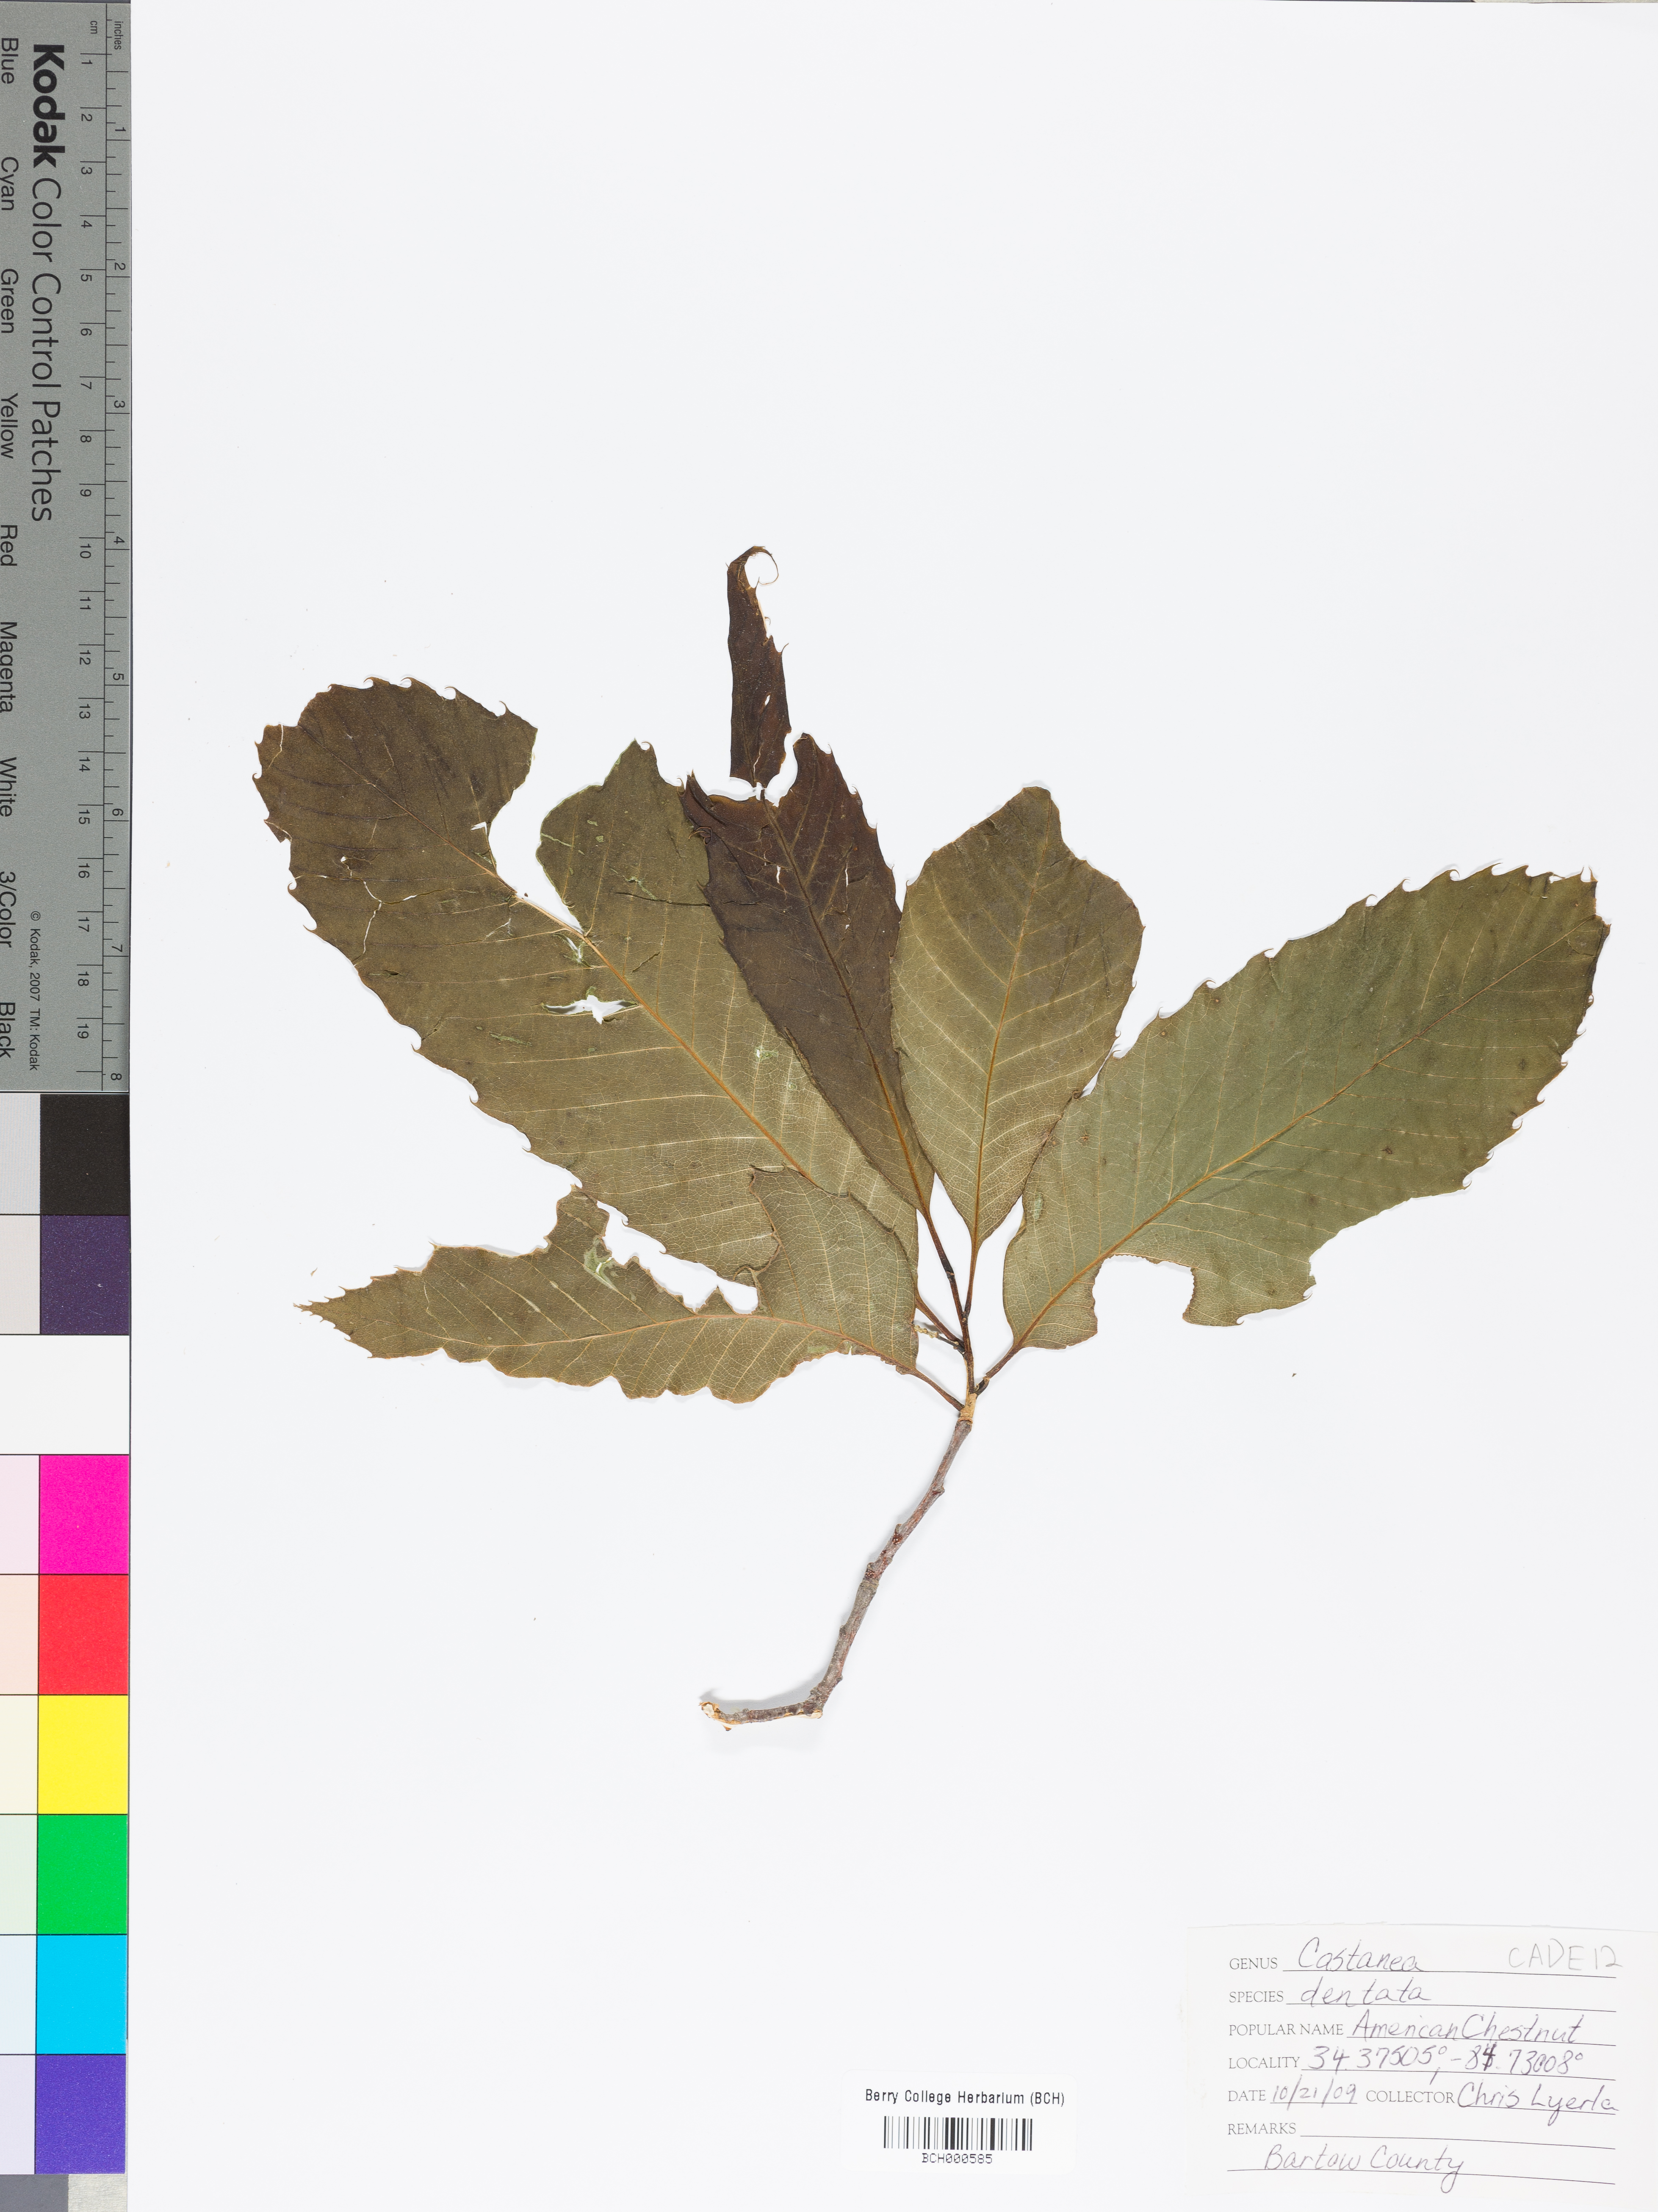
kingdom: Plantae
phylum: Tracheophyta
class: Magnoliopsida
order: Fagales
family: Fagaceae
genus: Castanea
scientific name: Castanea dentata
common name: American chestnut
